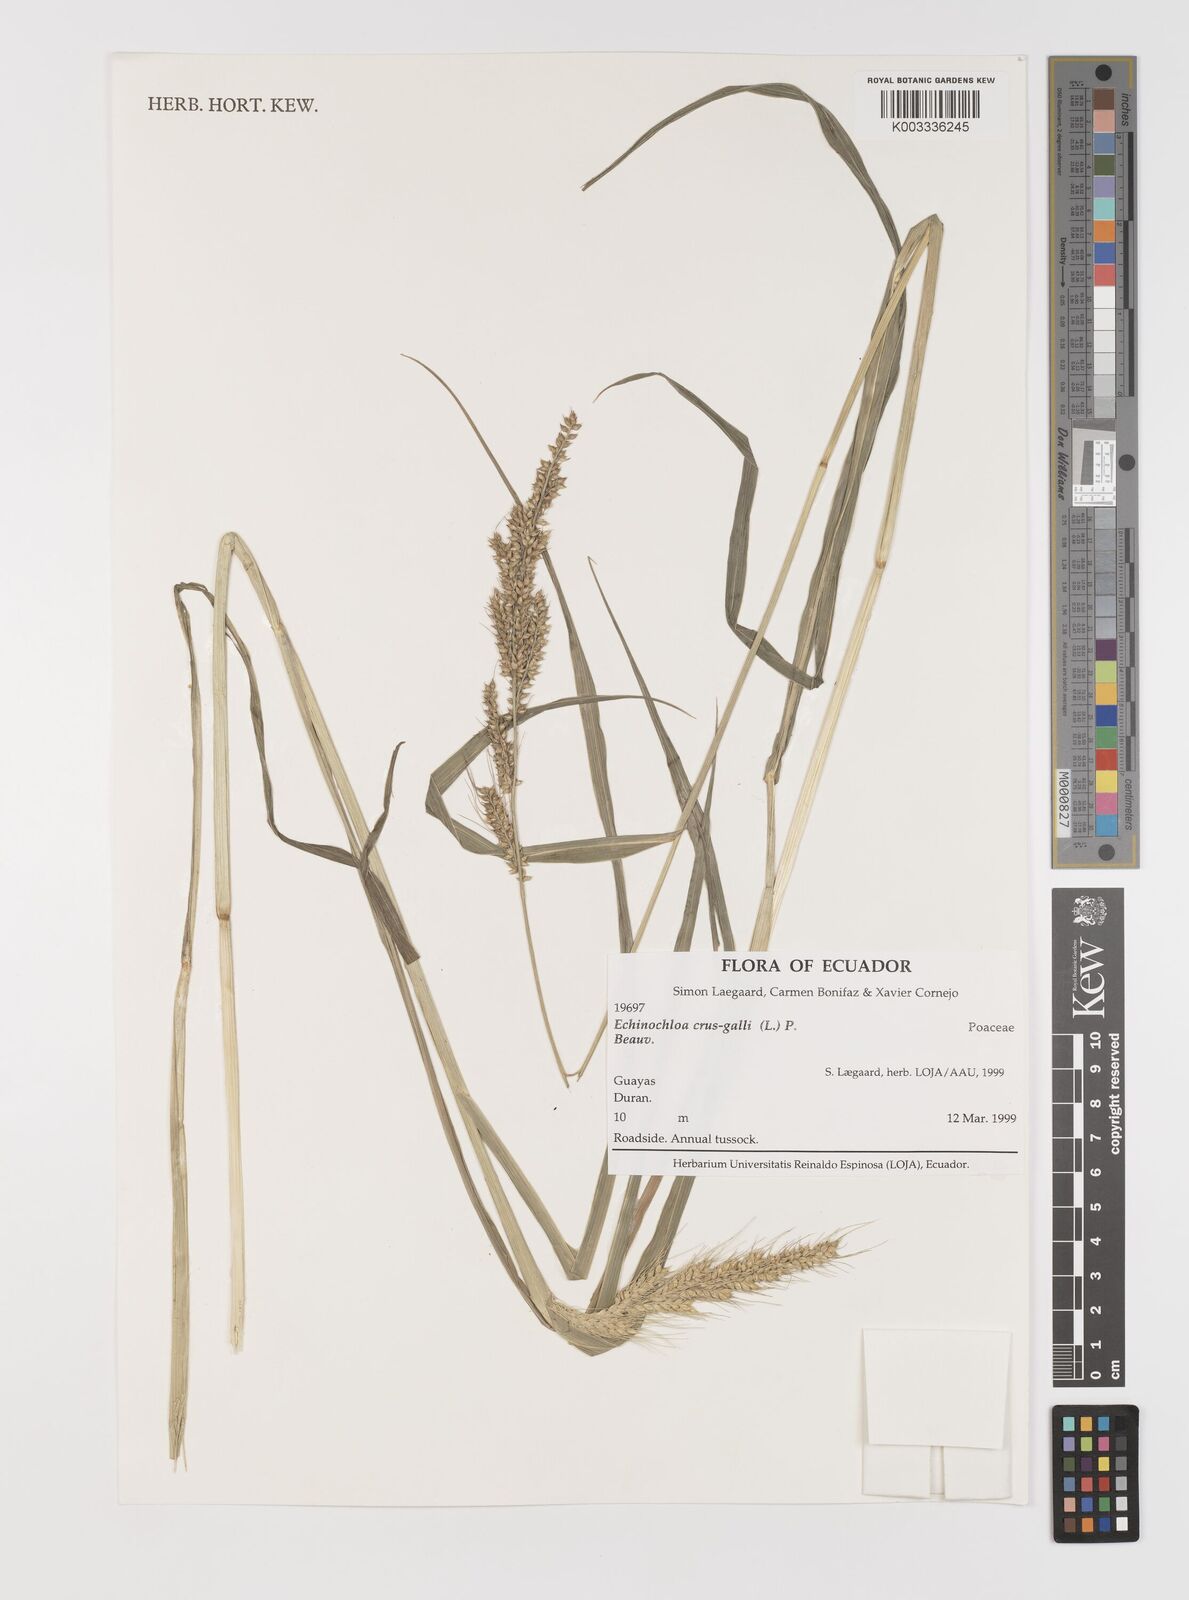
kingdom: Plantae
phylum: Tracheophyta
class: Liliopsida
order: Poales
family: Poaceae
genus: Echinochloa
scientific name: Echinochloa crus-galli
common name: Cockspur
